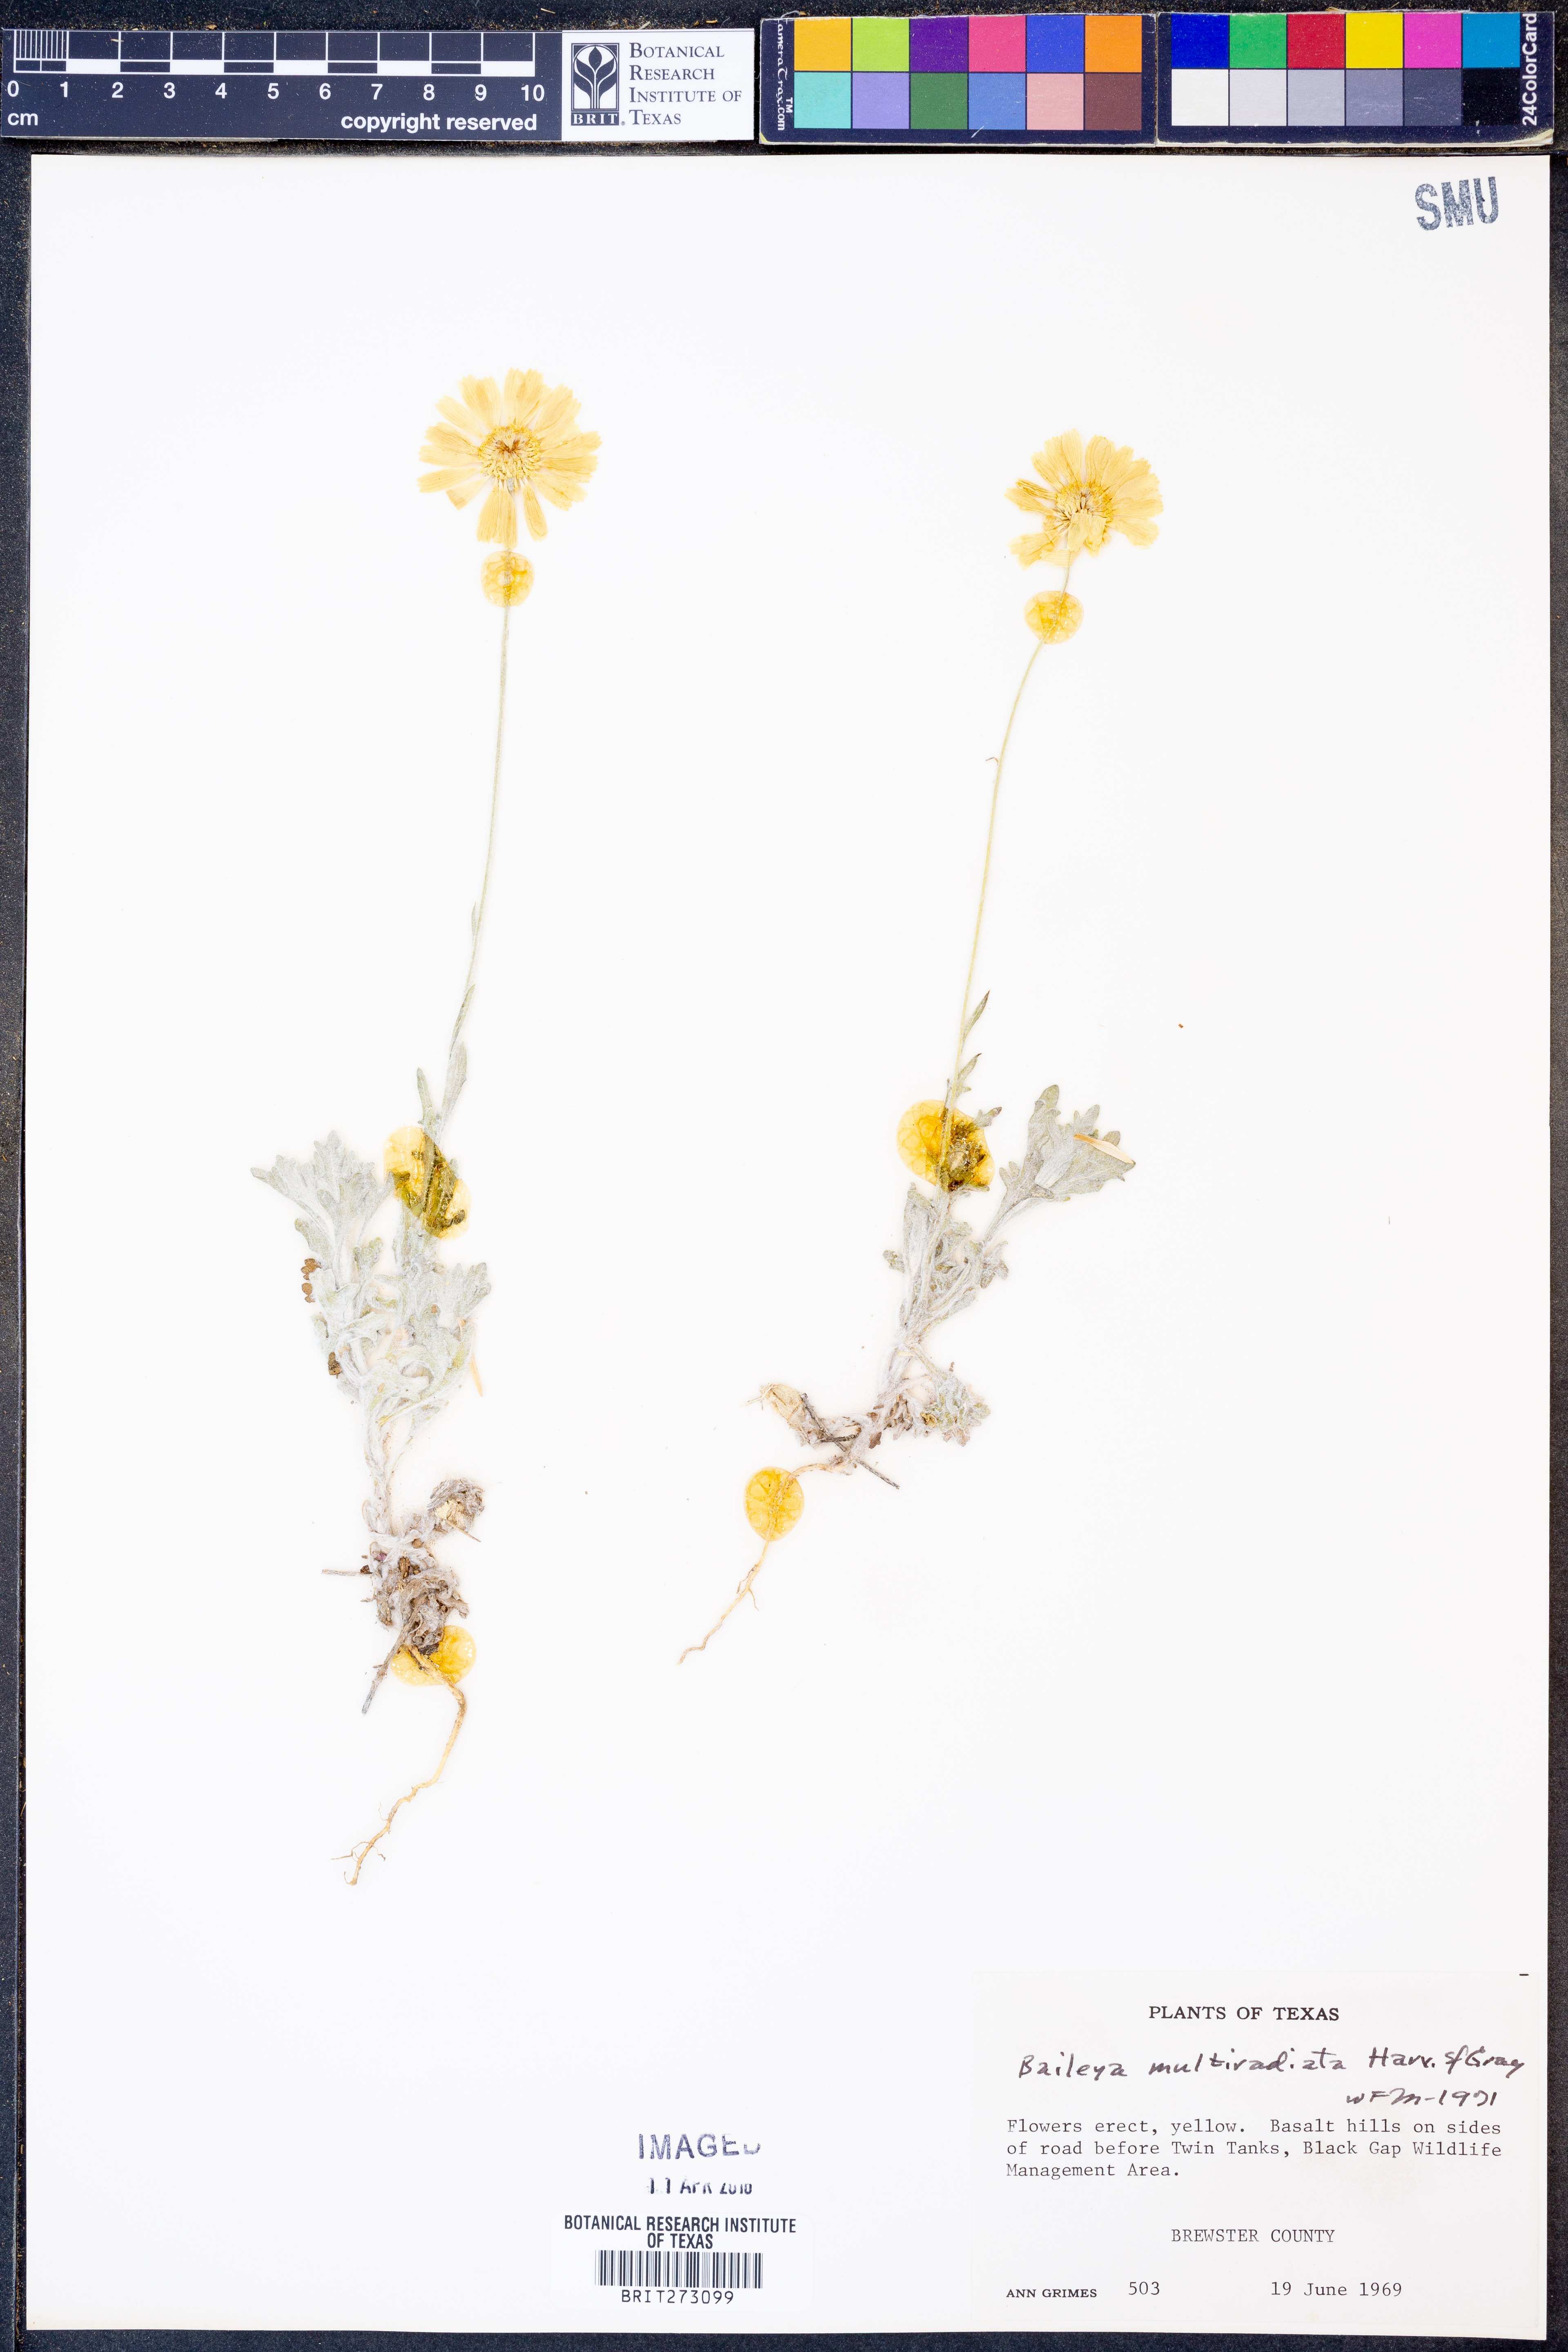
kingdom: Plantae
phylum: Tracheophyta
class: Magnoliopsida
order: Asterales
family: Asteraceae
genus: Baileya
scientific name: Baileya multiradiata
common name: Desert-marigold
